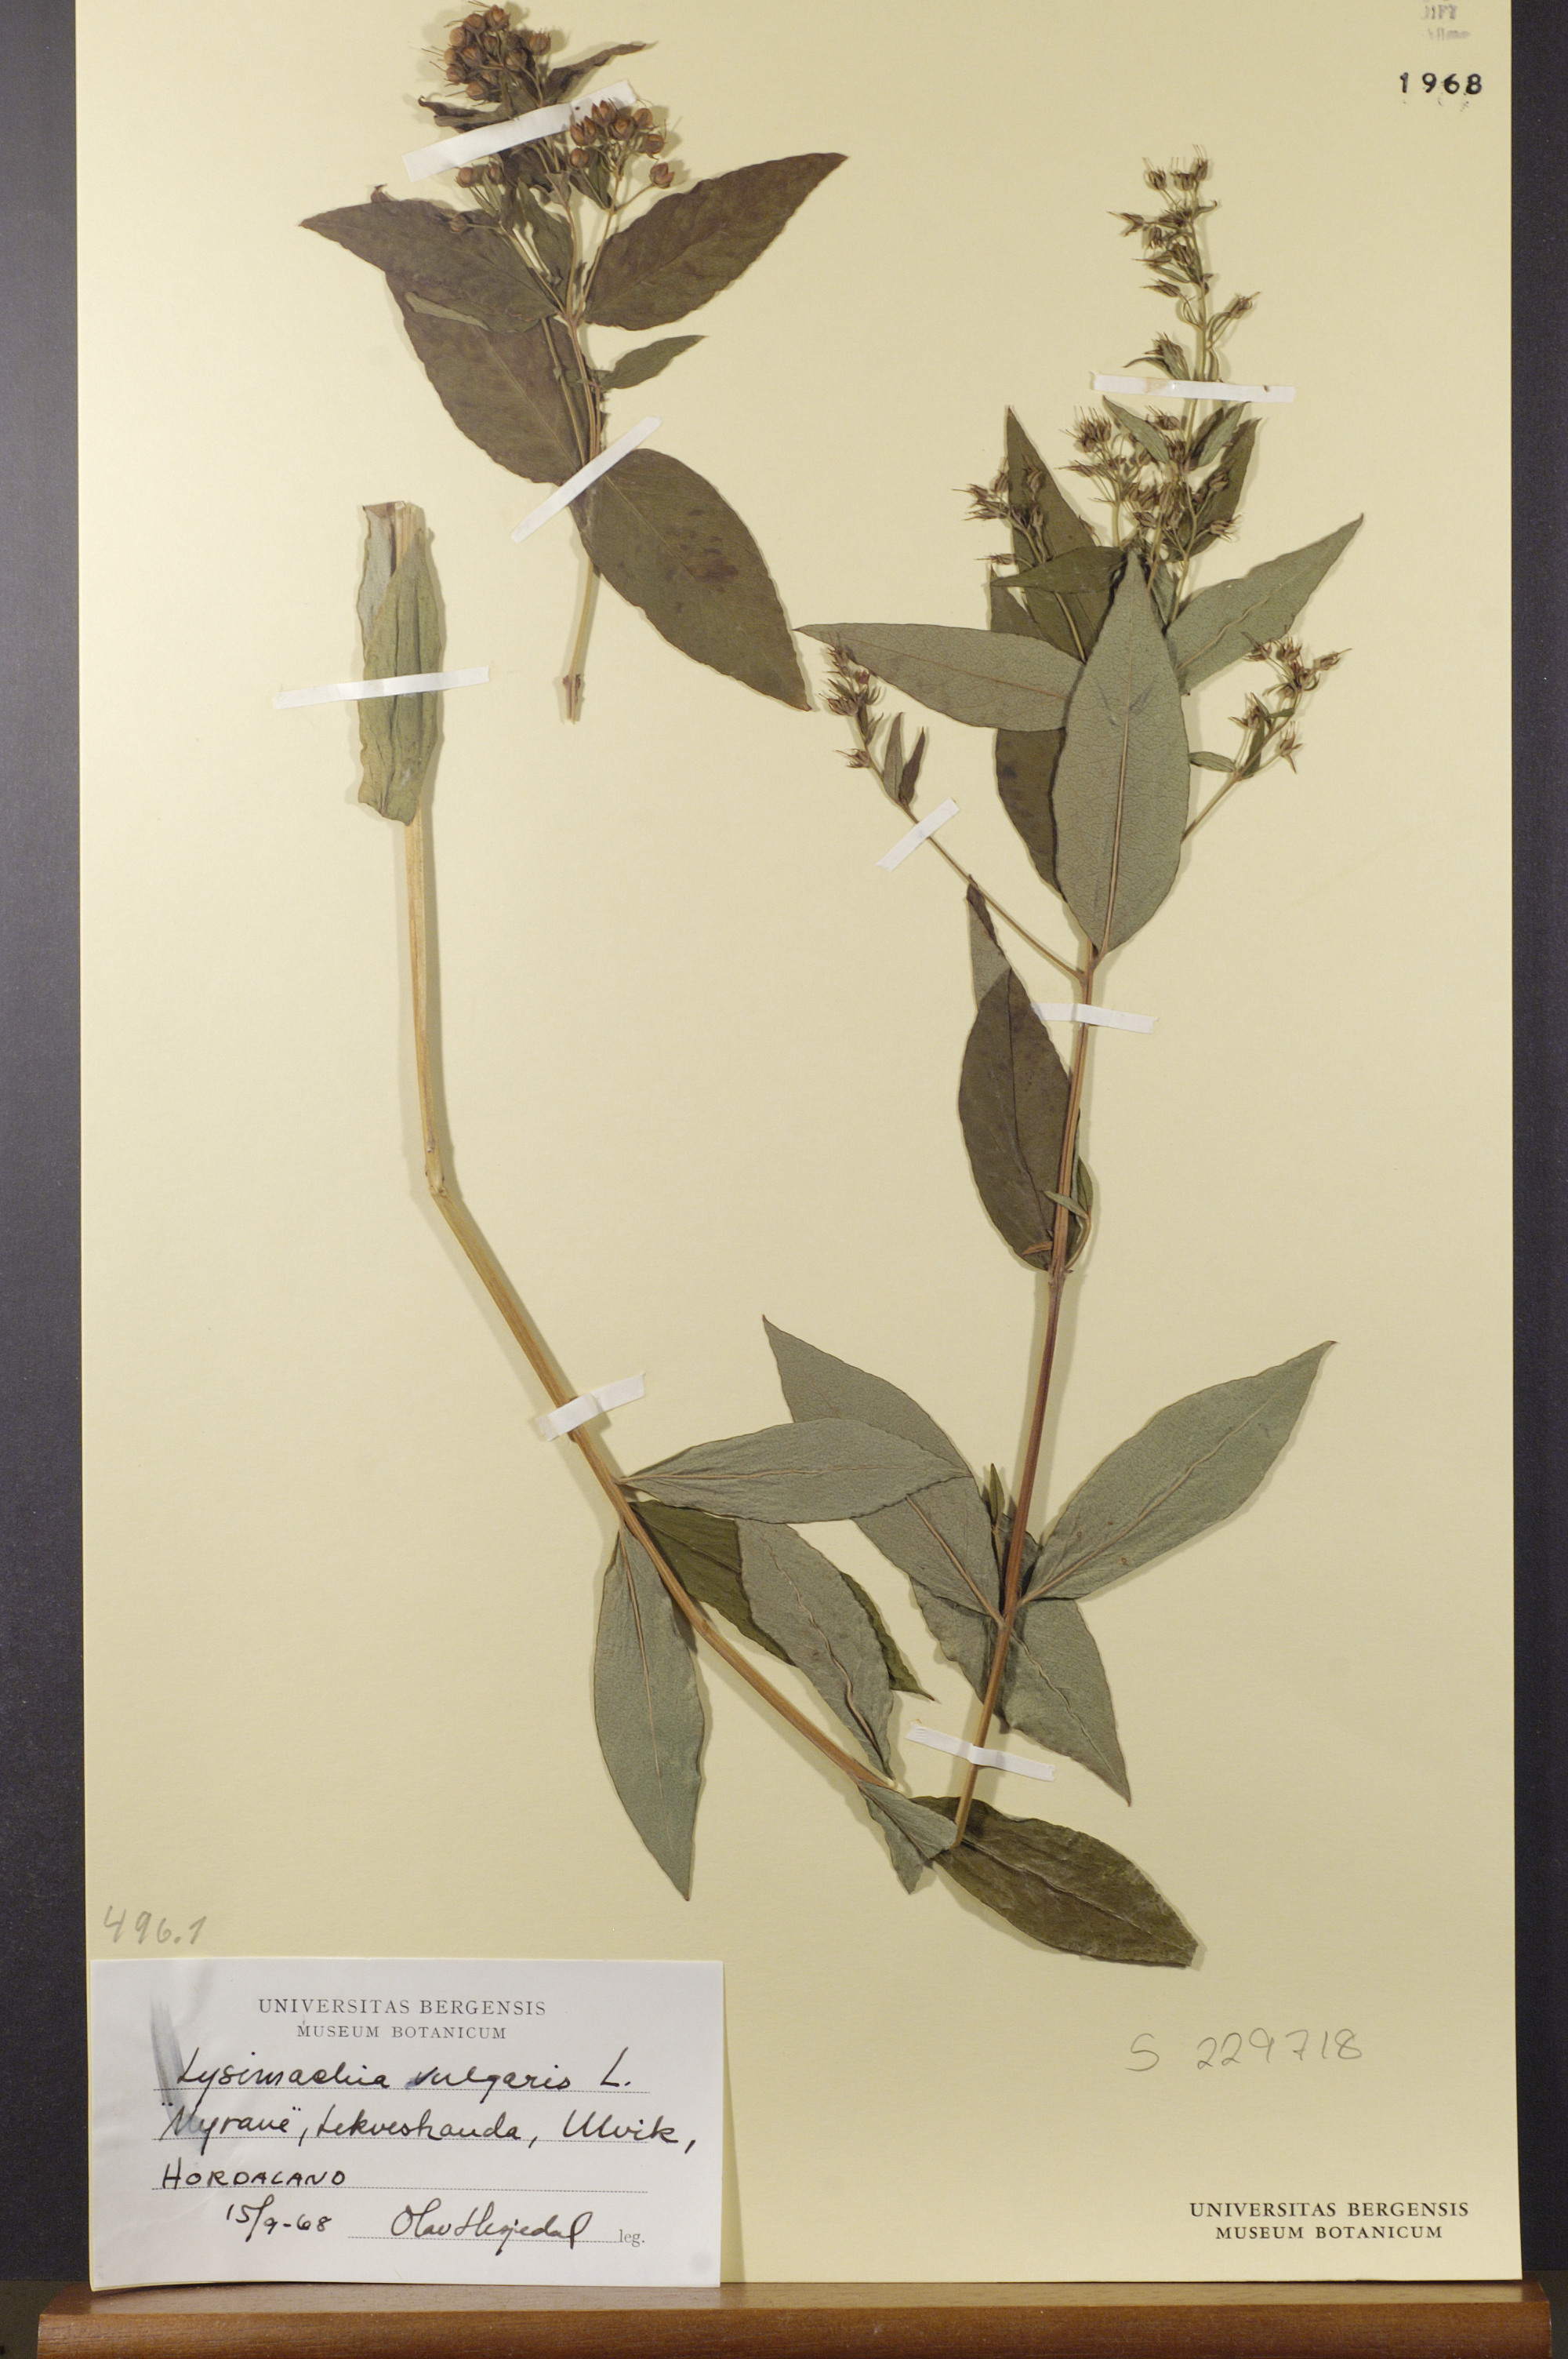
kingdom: Plantae
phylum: Tracheophyta
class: Magnoliopsida
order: Ericales
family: Primulaceae
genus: Lysimachia
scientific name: Lysimachia vulgaris
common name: Yellow loosestrife
